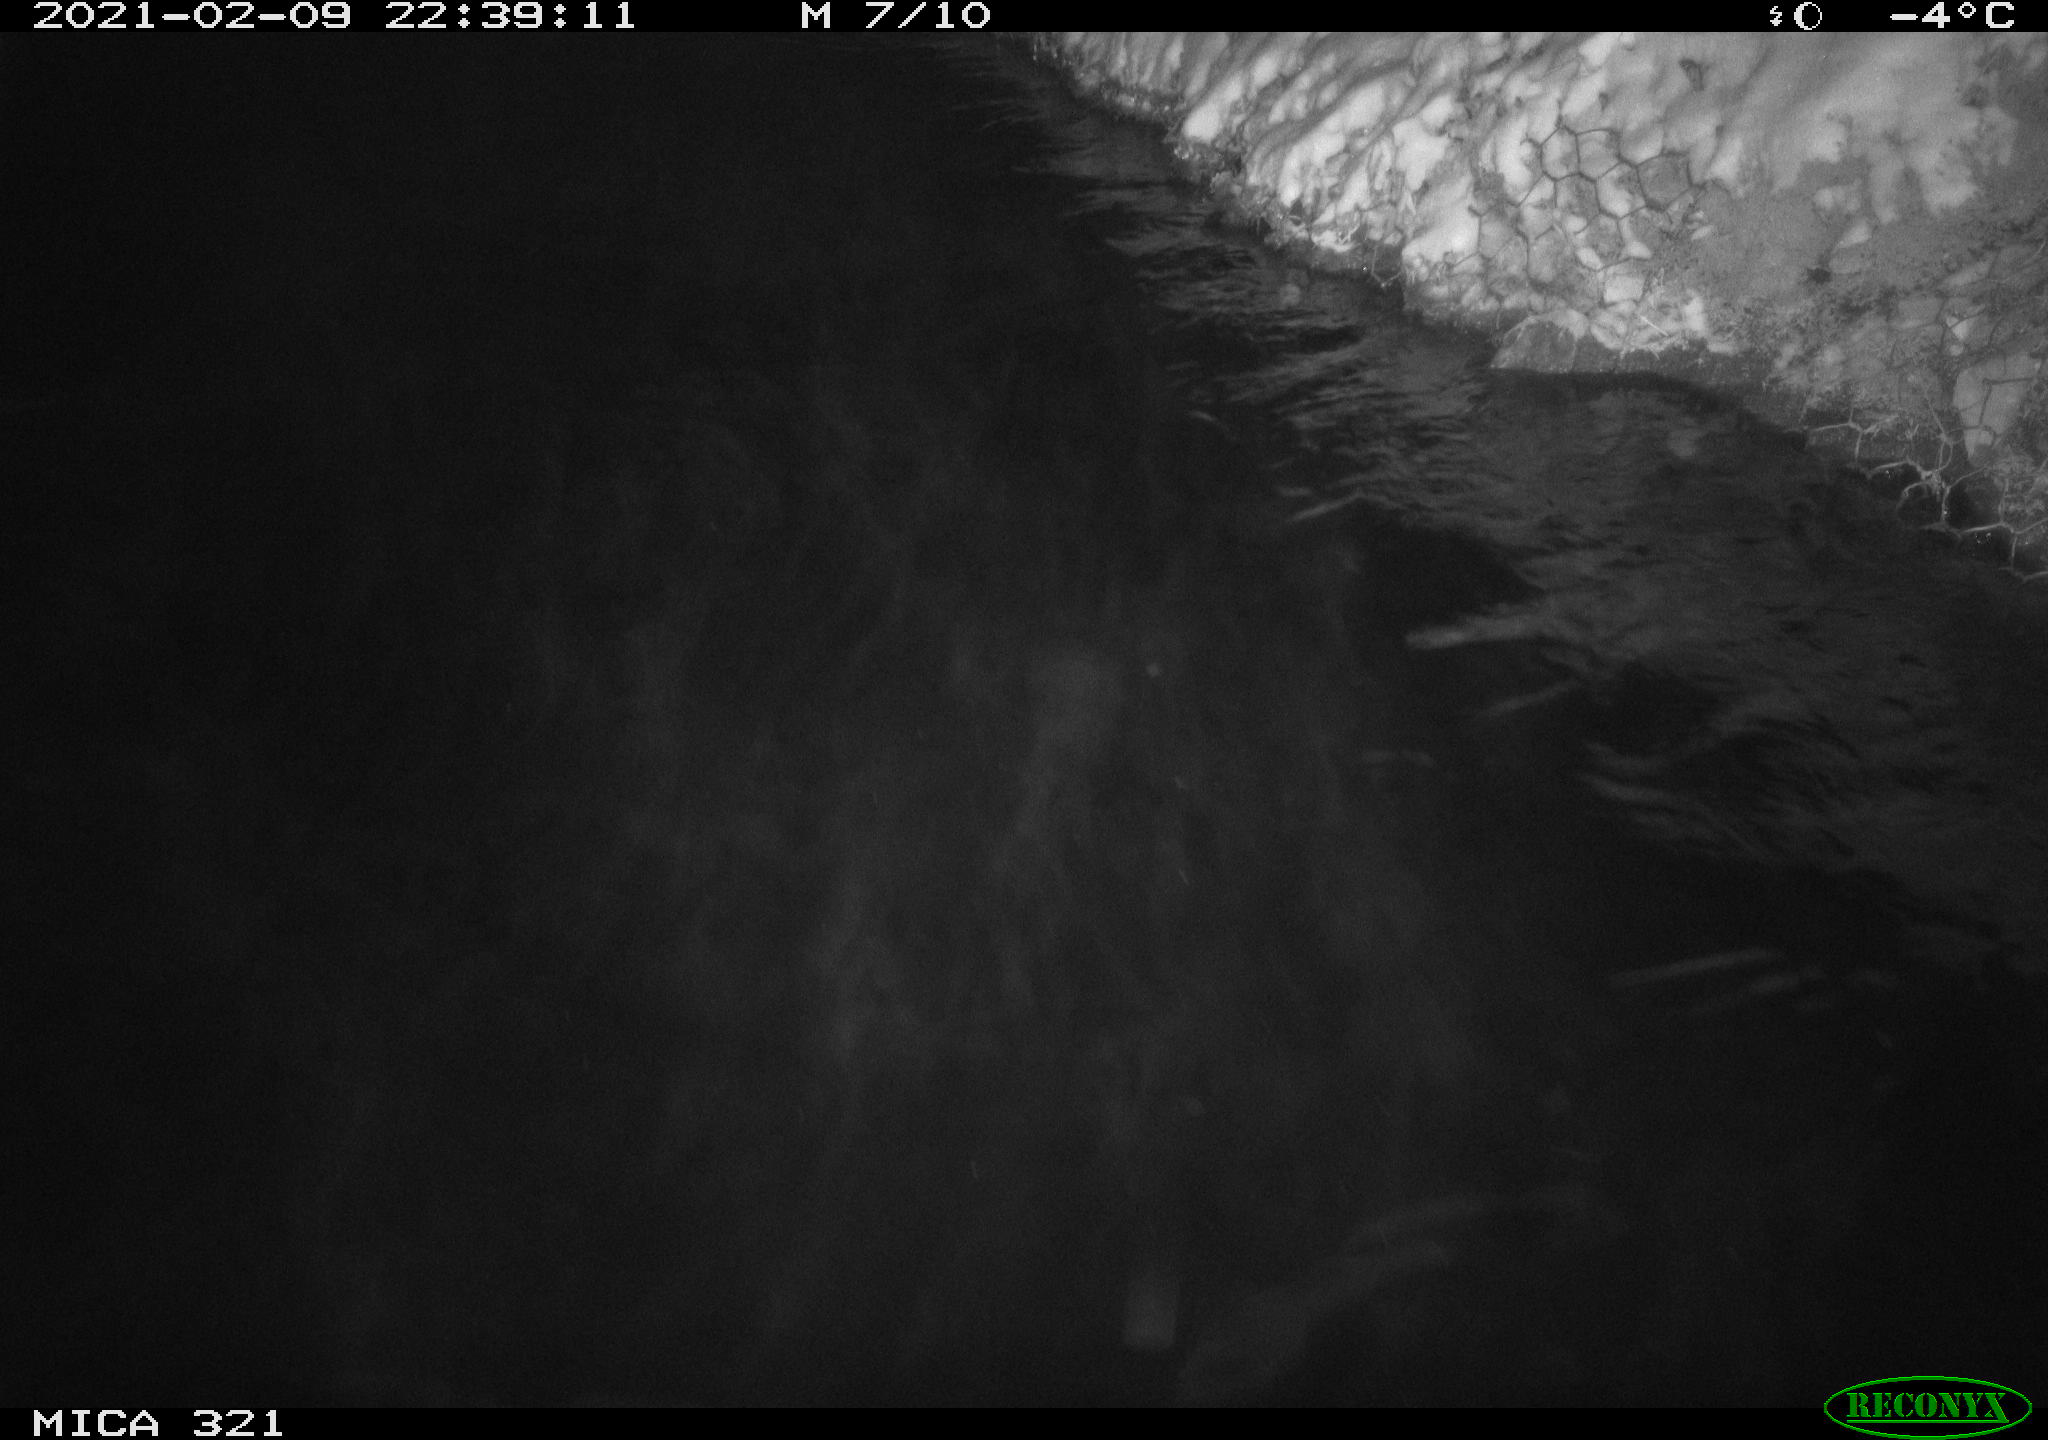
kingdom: Animalia
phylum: Chordata
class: Aves
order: Anseriformes
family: Anatidae
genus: Anas
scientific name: Anas platyrhynchos
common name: Mallard
